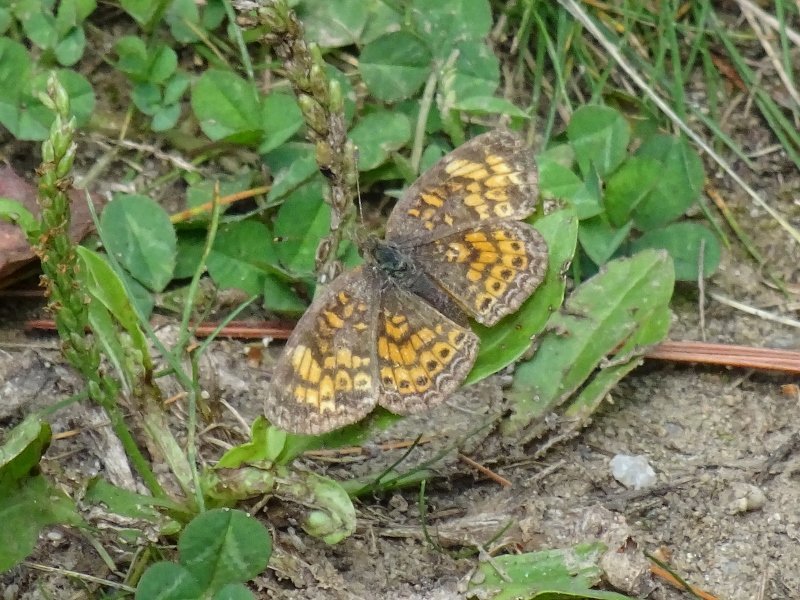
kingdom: Animalia
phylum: Arthropoda
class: Insecta
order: Lepidoptera
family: Nymphalidae
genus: Phyciodes
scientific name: Phyciodes tharos
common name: Pearl Crescent
